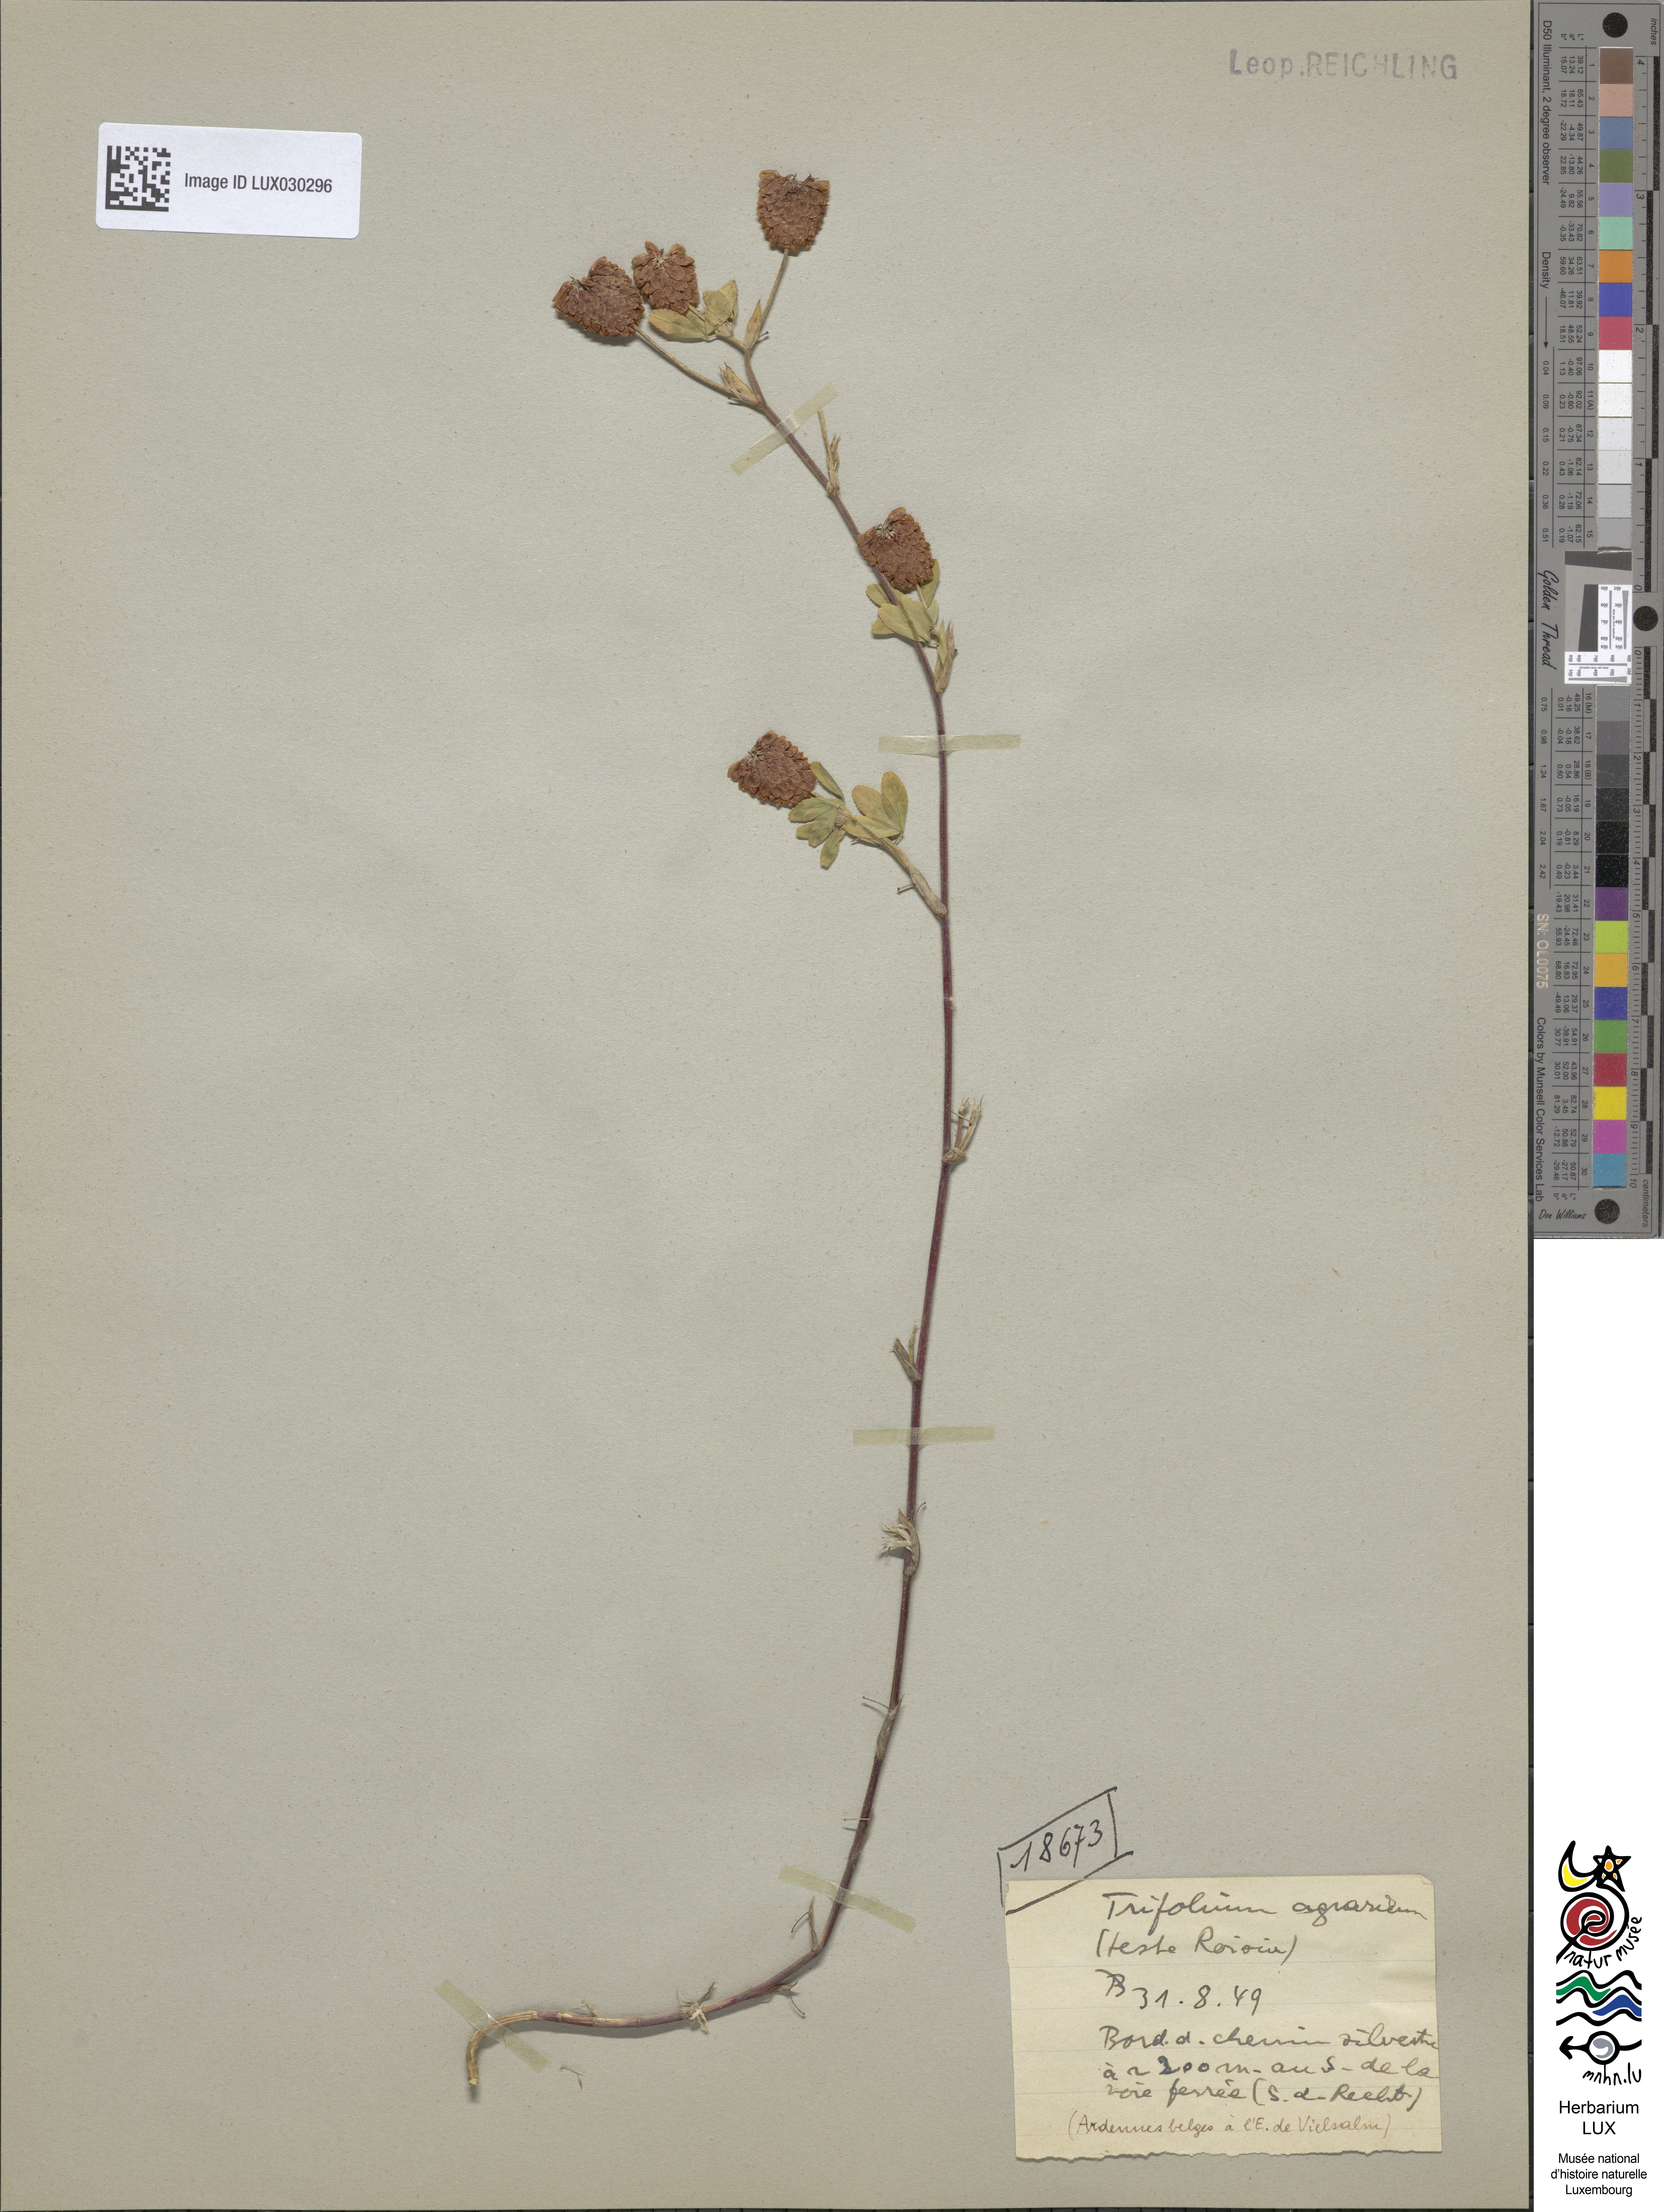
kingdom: Plantae
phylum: Tracheophyta
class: Magnoliopsida
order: Fabales
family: Fabaceae
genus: Trifolium
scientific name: Trifolium aureum
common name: Golden clover
